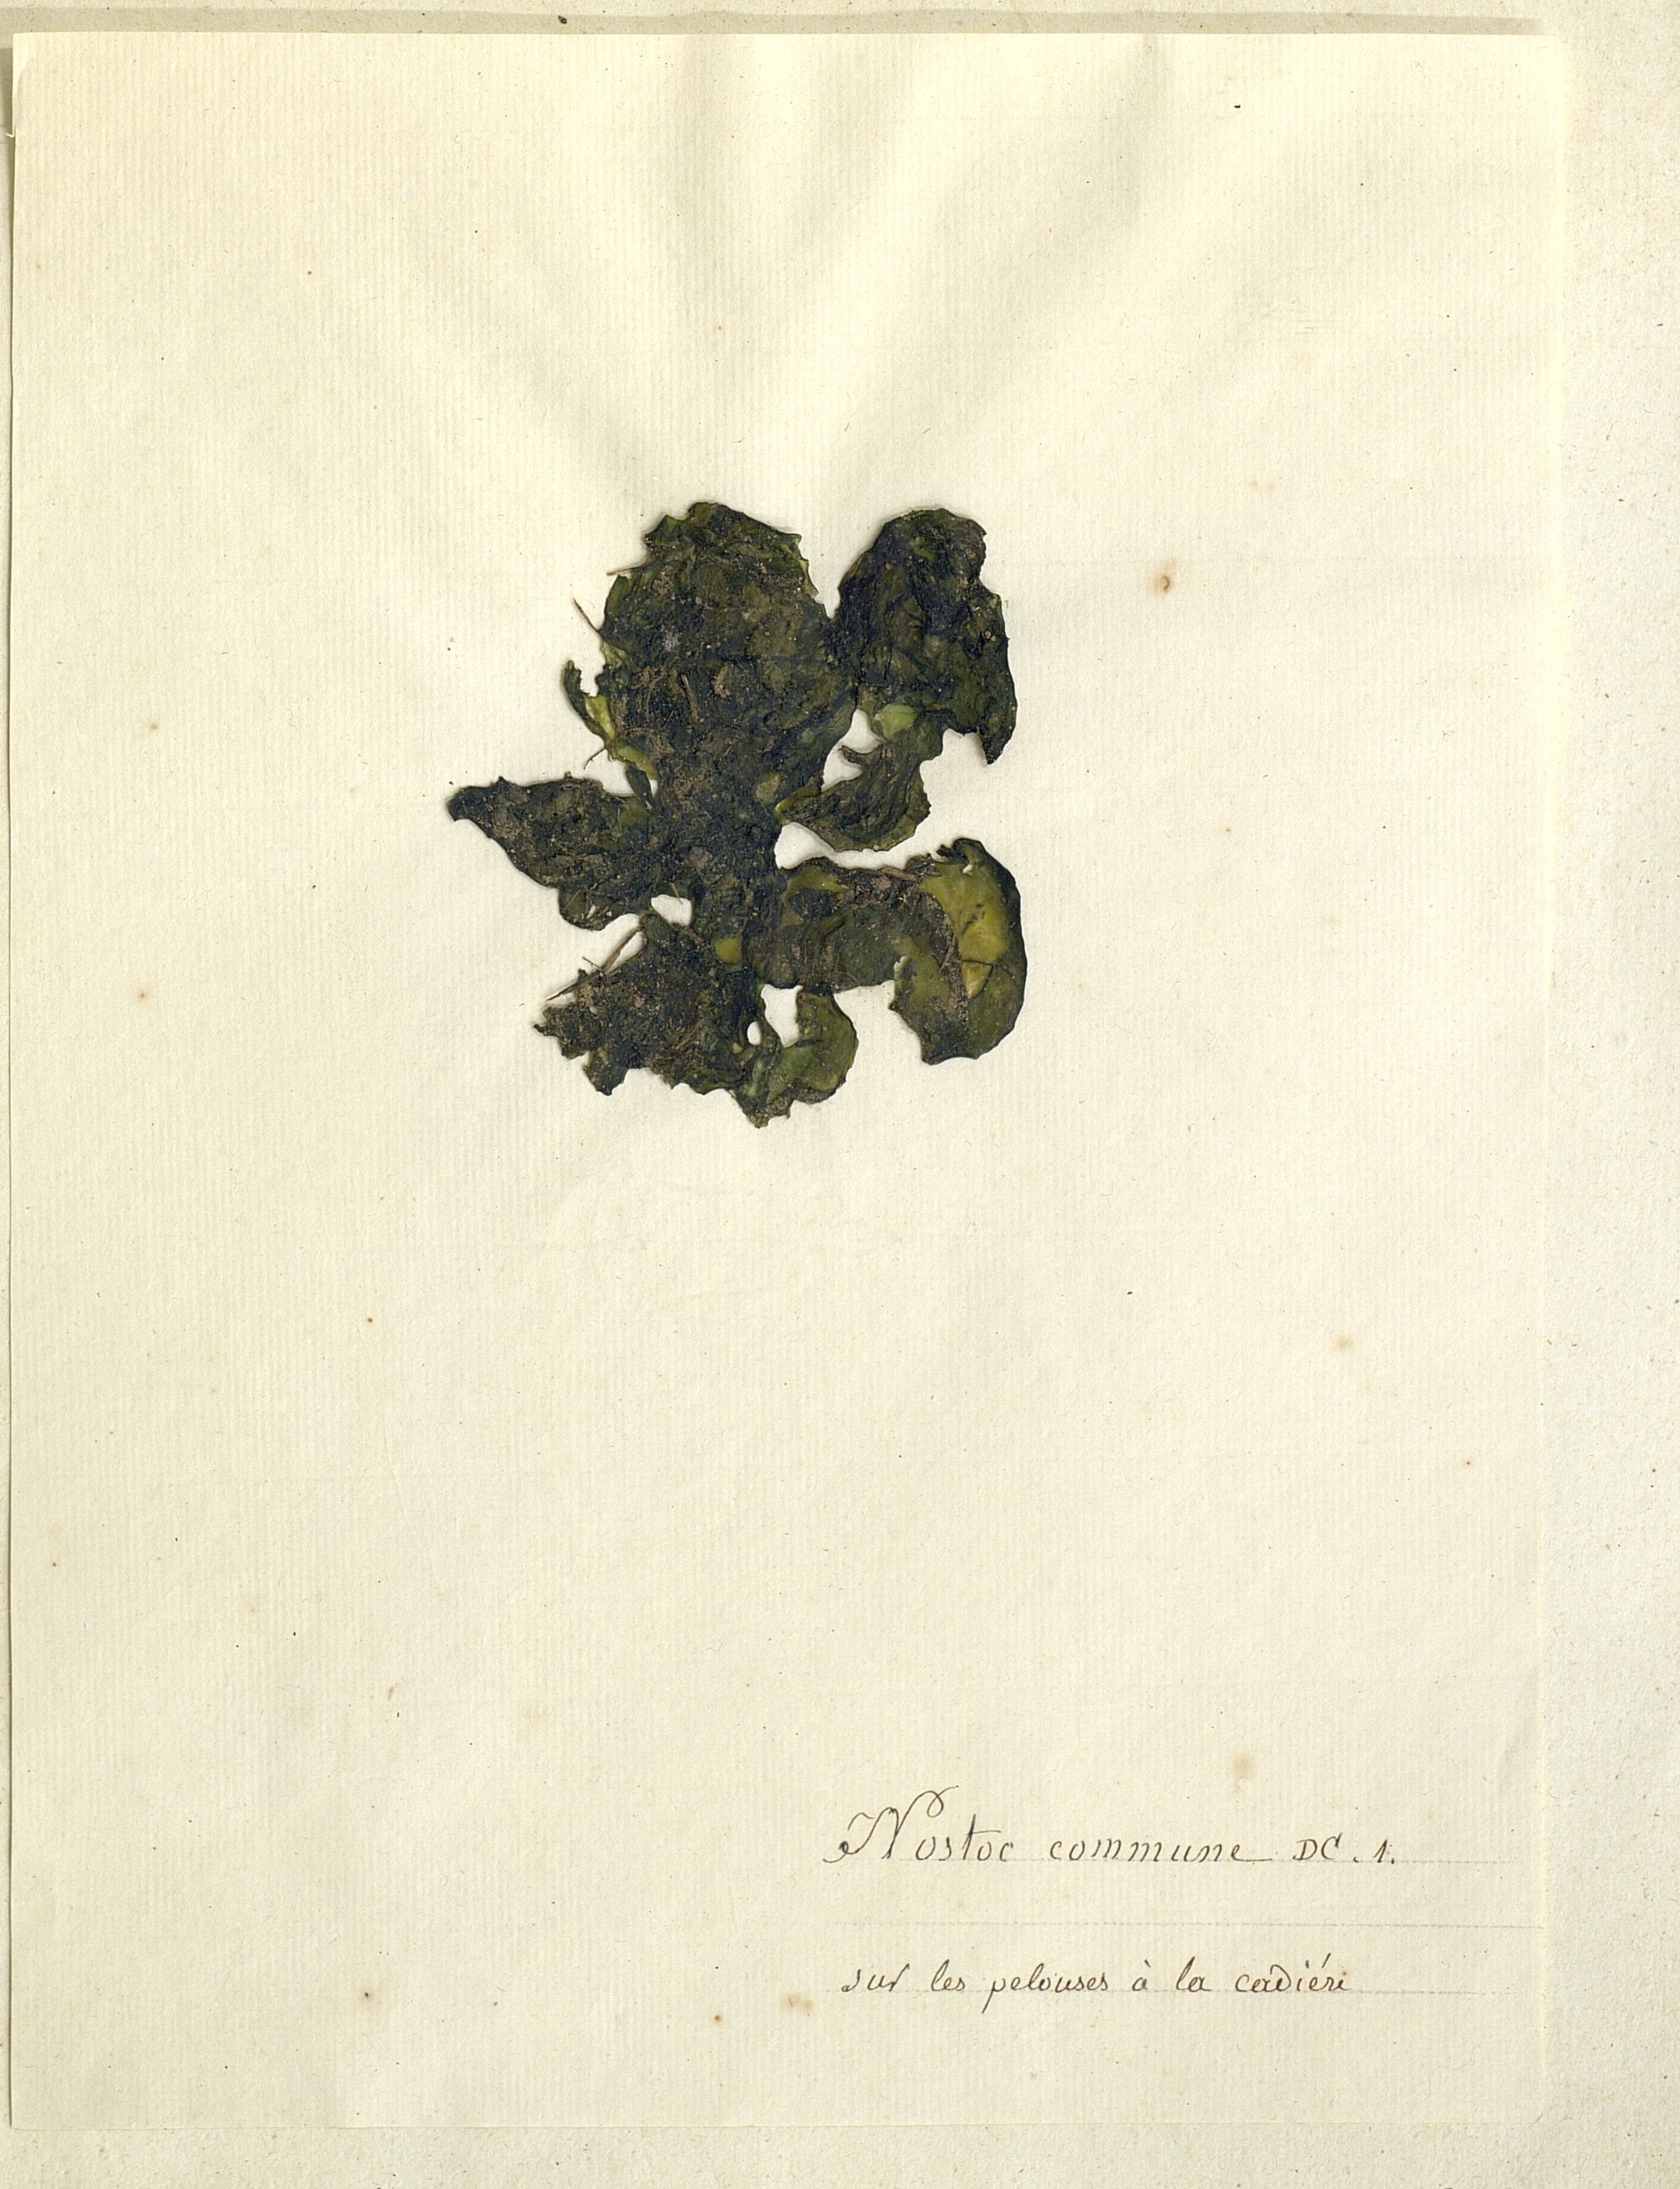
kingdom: Bacteria
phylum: Cyanobacteria
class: Cyanobacteriia
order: Cyanobacteriales
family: Nostocaceae
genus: Nostoc
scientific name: Nostoc commune
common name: Star jelly
